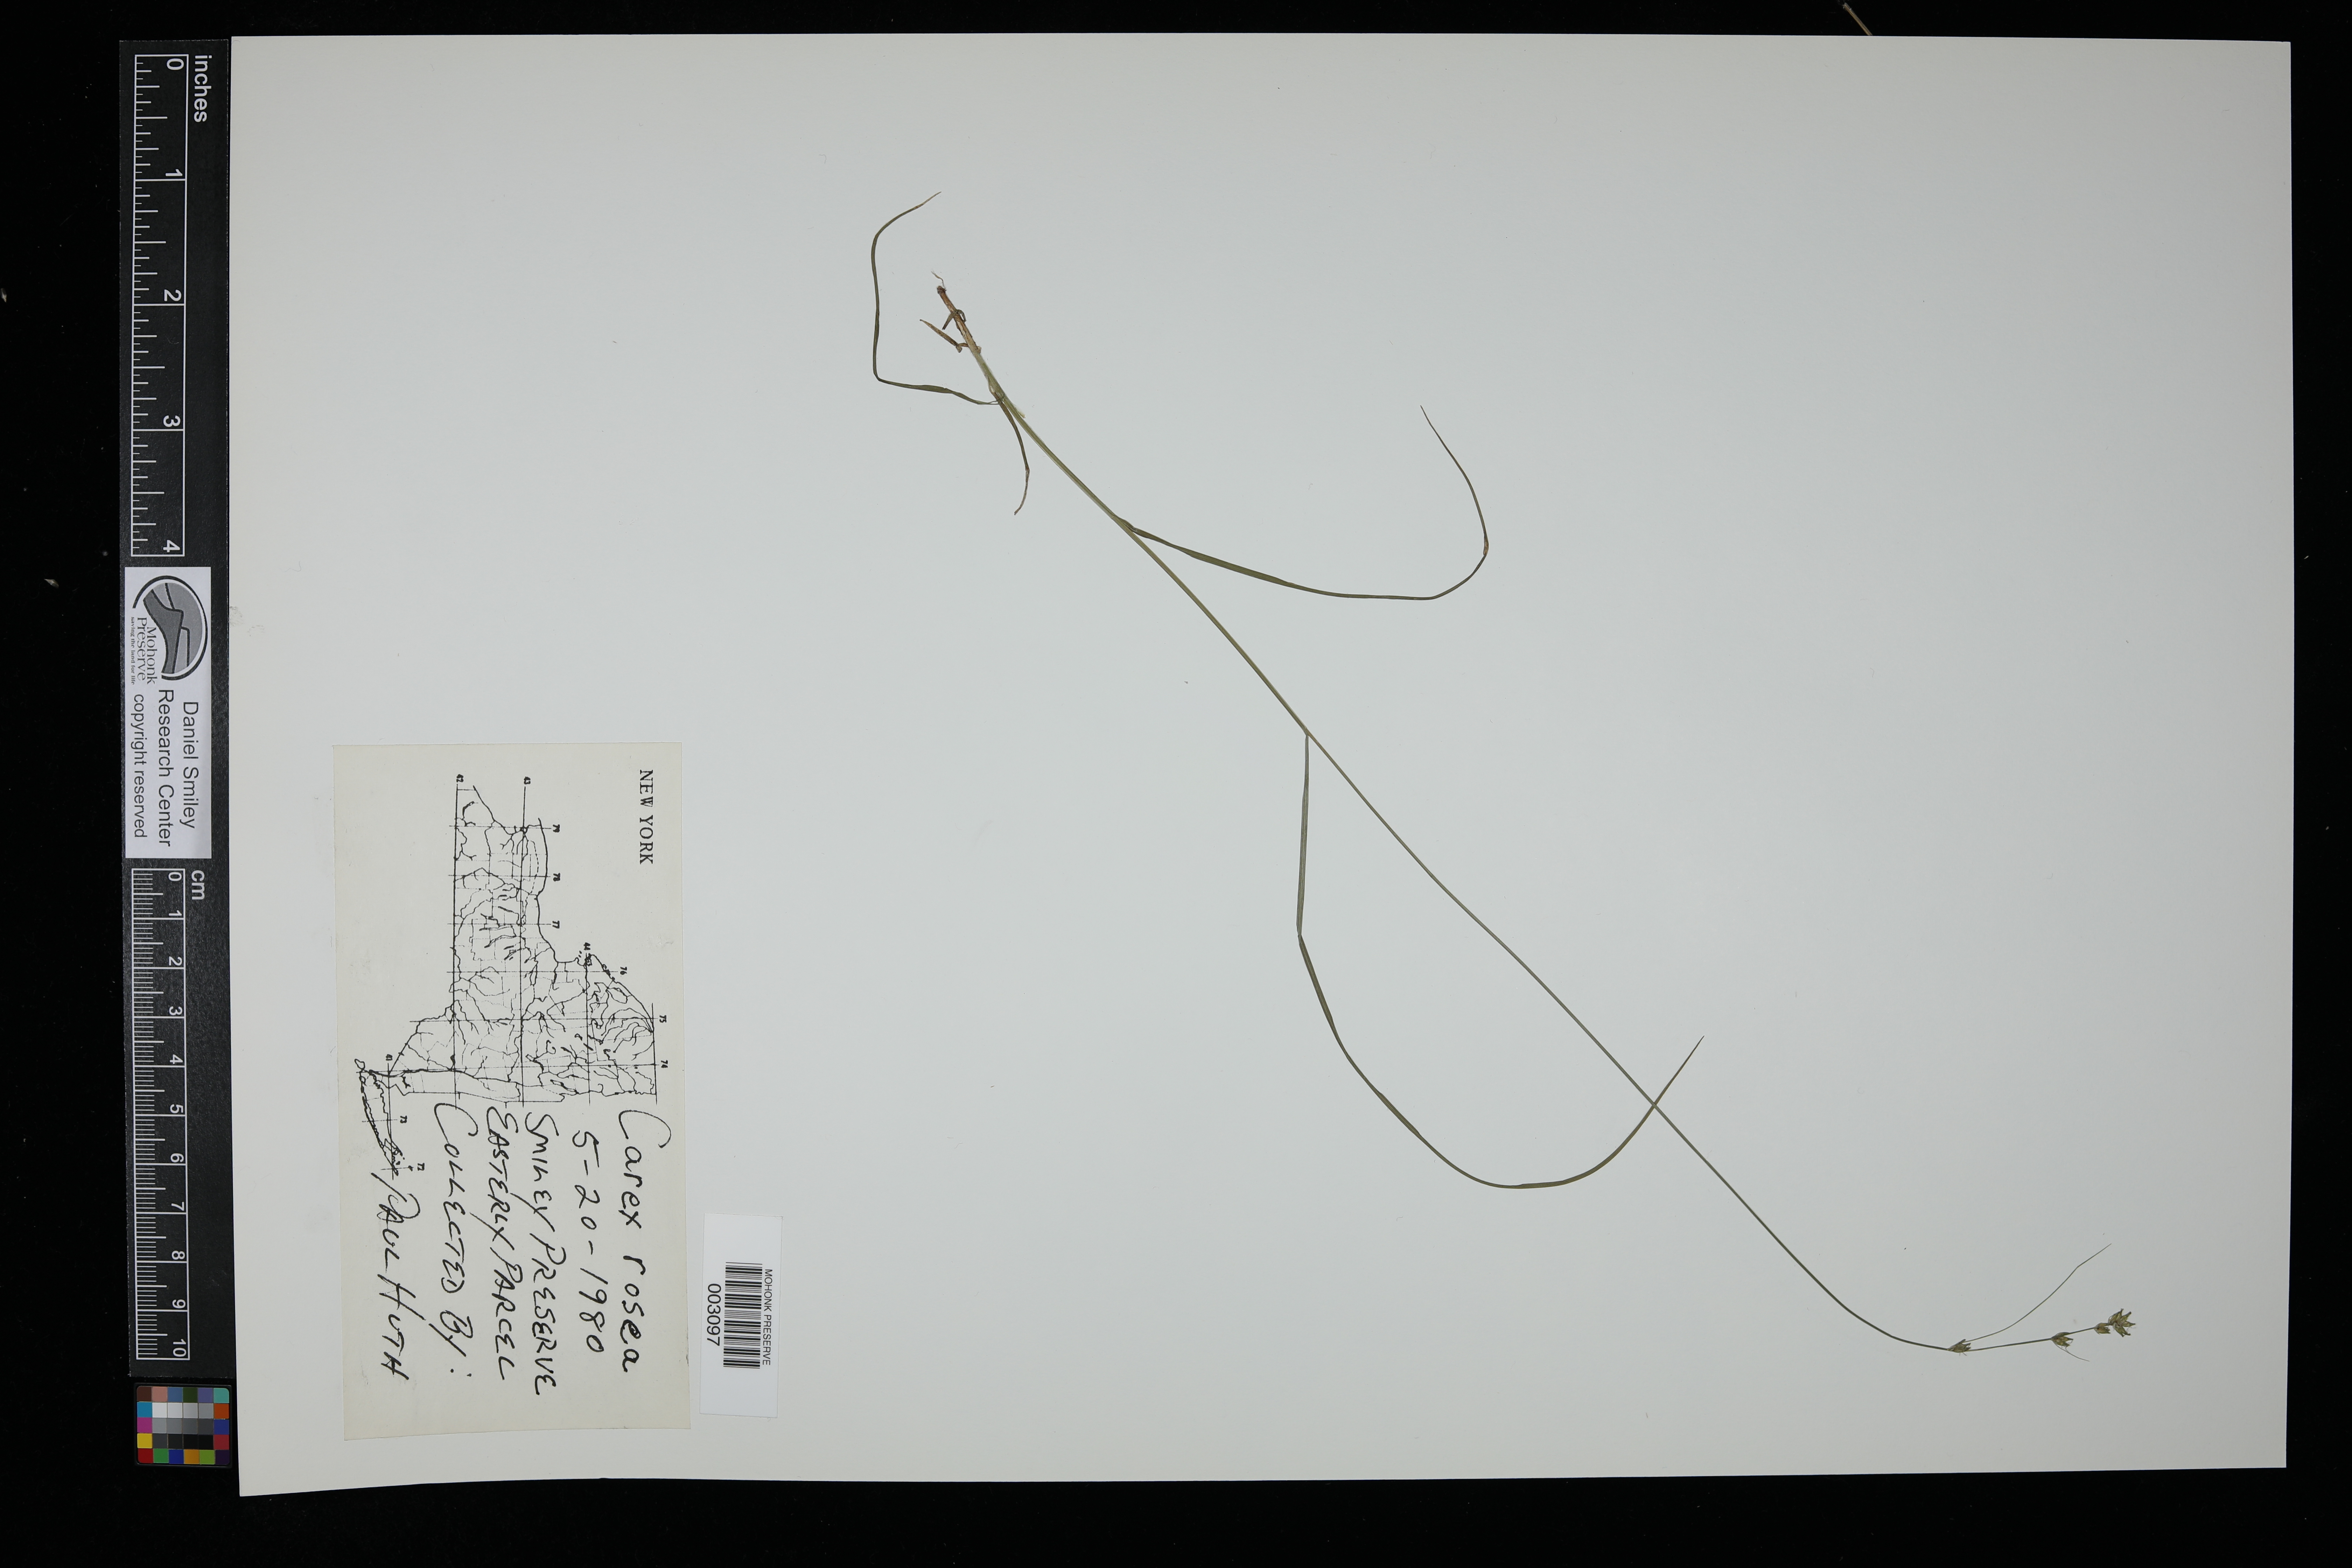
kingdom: Plantae
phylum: Tracheophyta
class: Liliopsida
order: Poales
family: Cyperaceae
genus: Carex
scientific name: Carex rosea
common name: Curly-styled wood sedge
